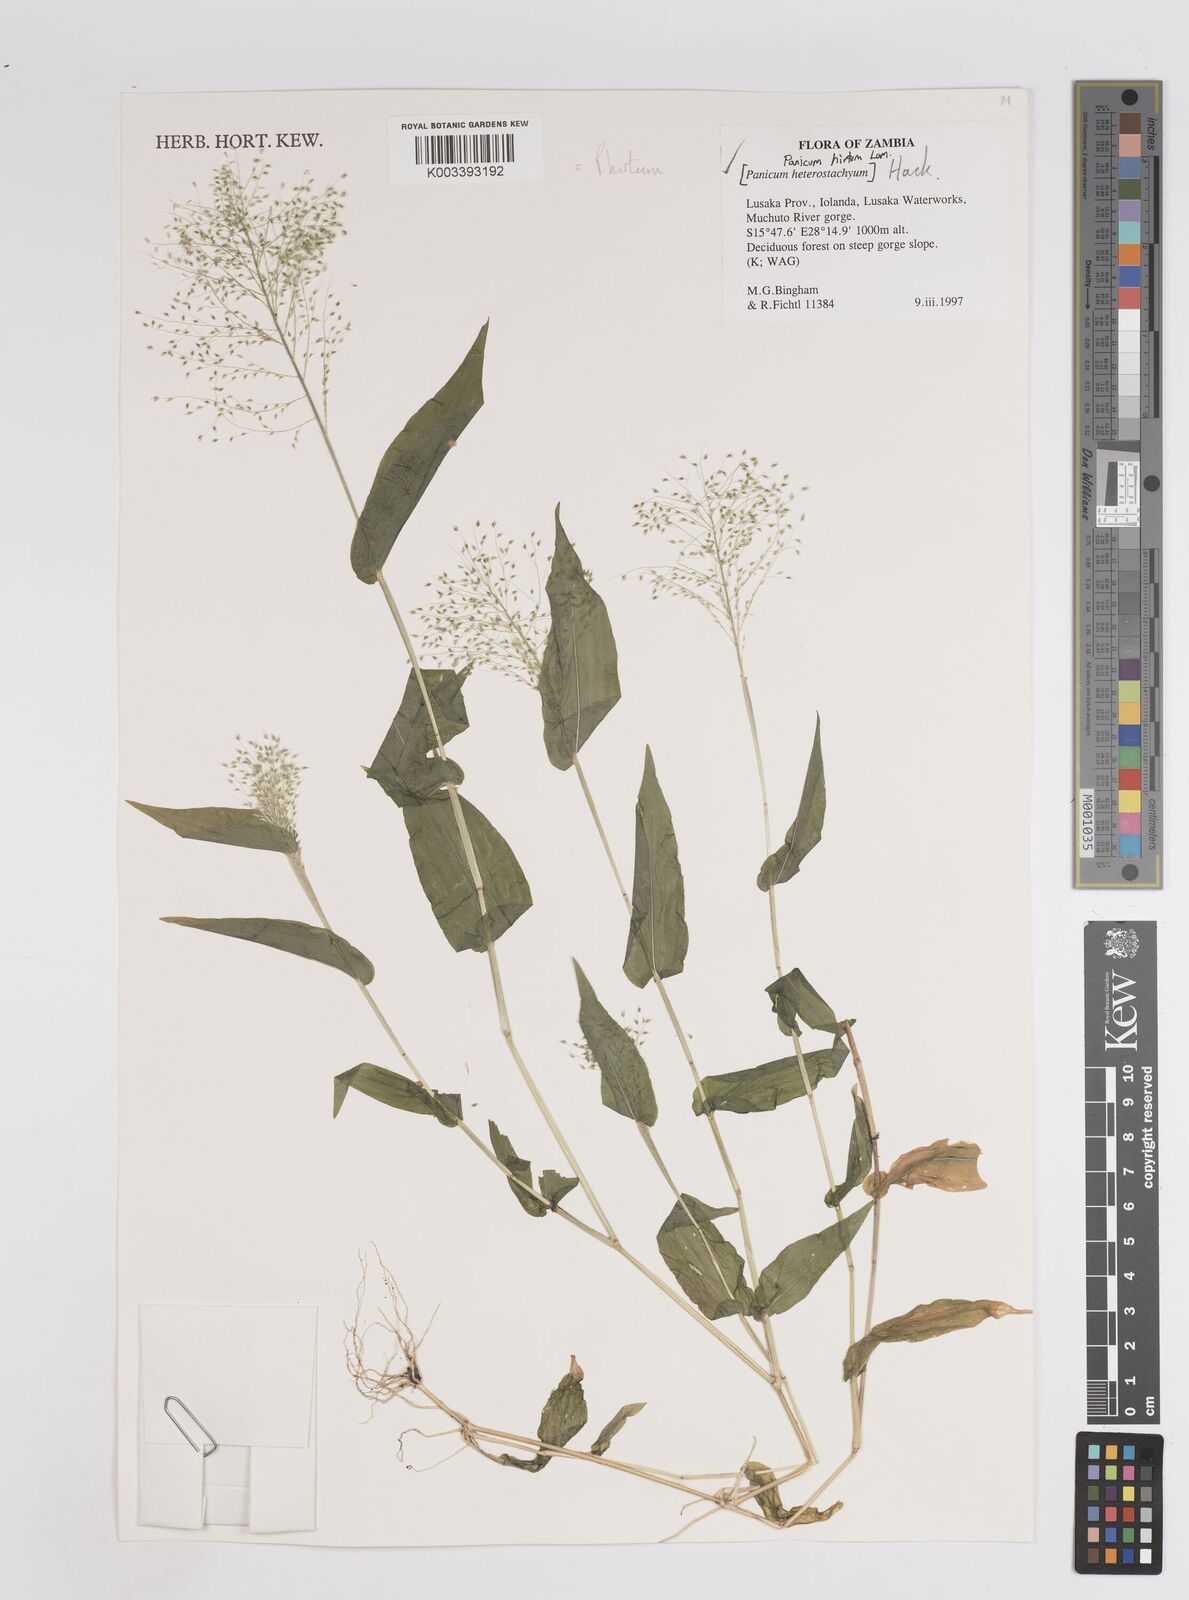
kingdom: Plantae
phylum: Tracheophyta
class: Liliopsida
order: Poales
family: Poaceae
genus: Panicum
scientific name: Panicum hirtum
